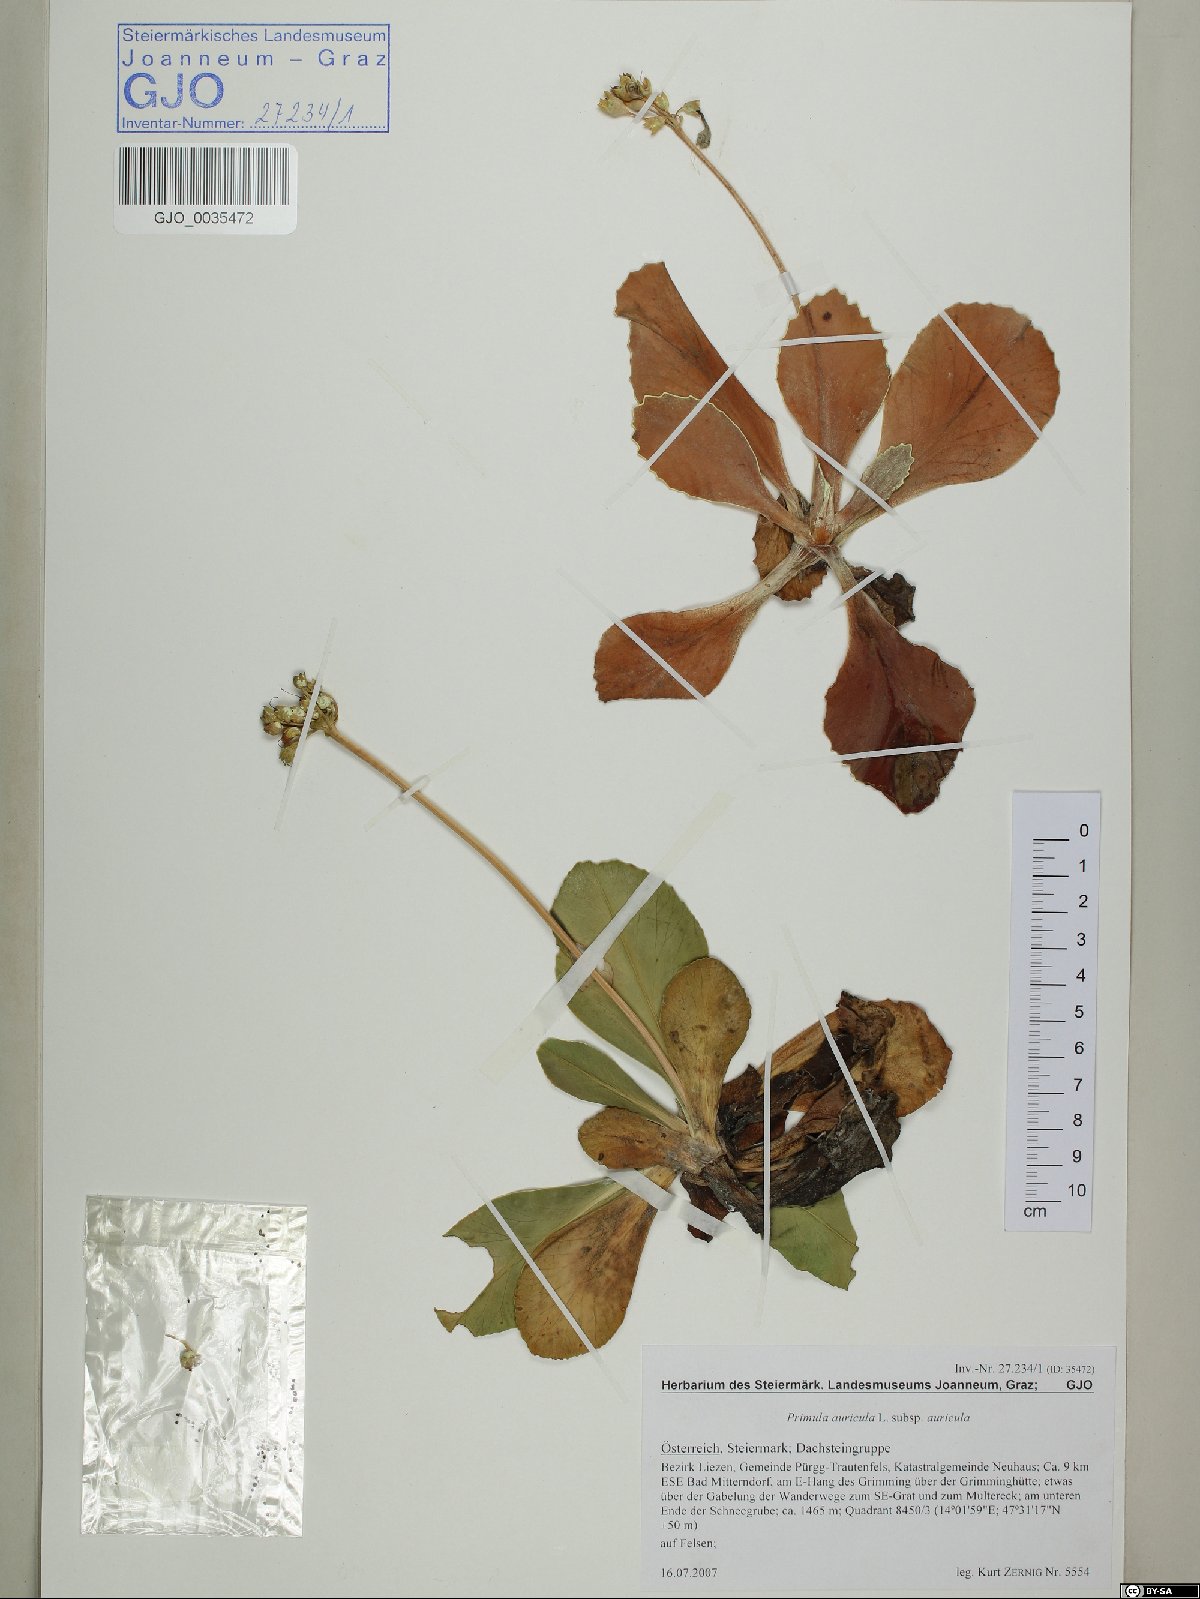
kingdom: Plantae
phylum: Tracheophyta
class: Magnoliopsida
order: Ericales
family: Primulaceae
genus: Primula
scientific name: Primula auricula
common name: Auricula
